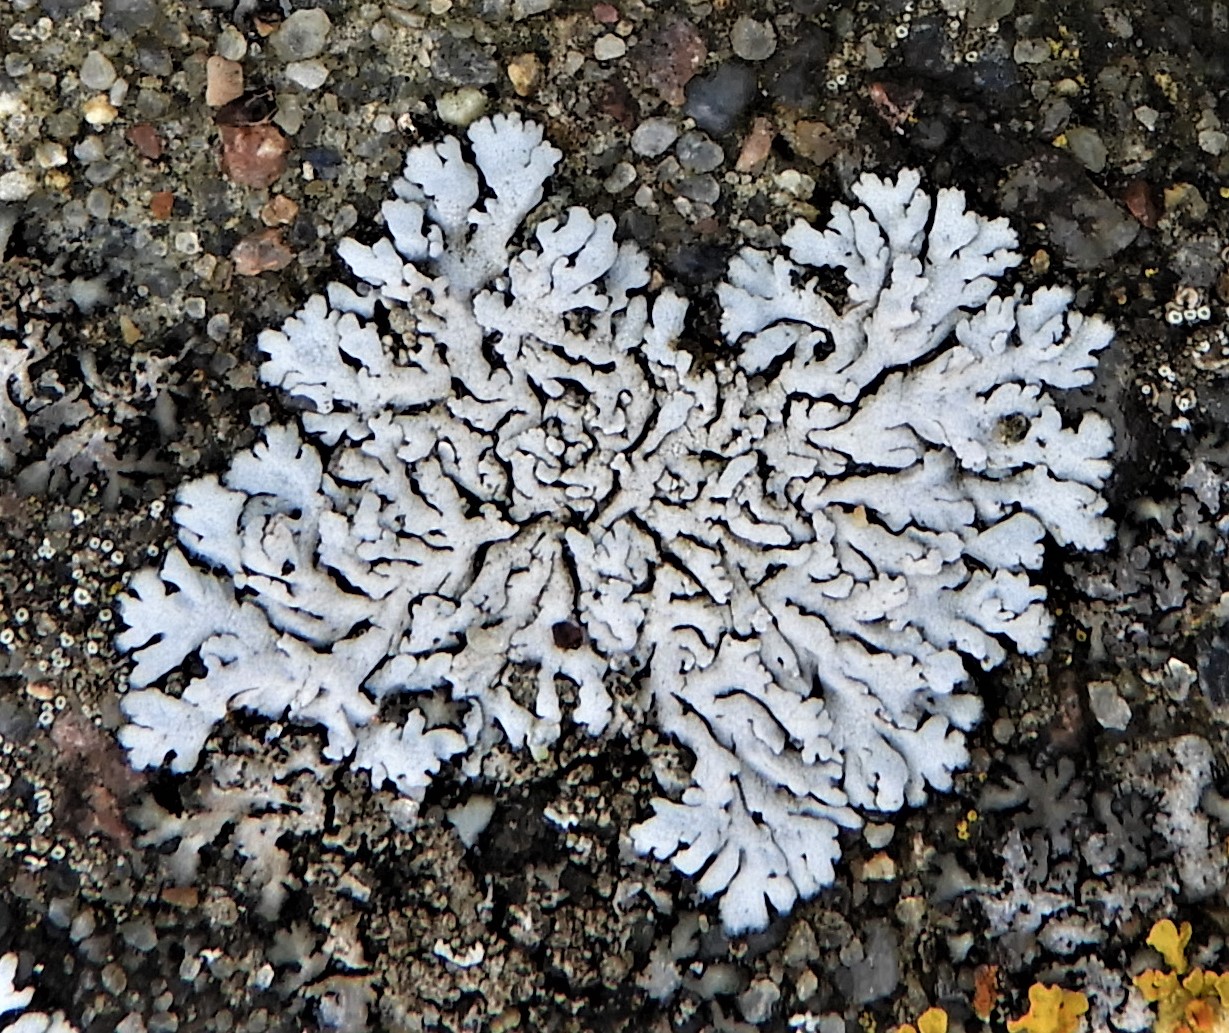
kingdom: Fungi
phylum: Ascomycota
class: Lecanoromycetes
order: Caliciales
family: Physciaceae
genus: Physcia
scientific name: Physcia caesia
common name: blågrå rosetlav
